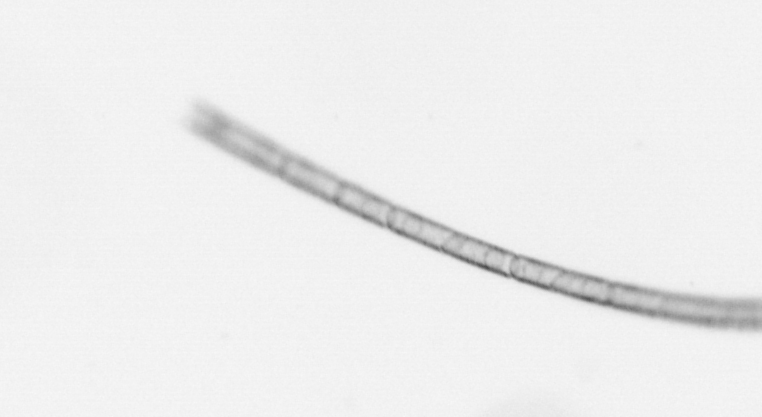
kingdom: Chromista
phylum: Ochrophyta
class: Bacillariophyceae
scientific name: Bacillariophyceae
